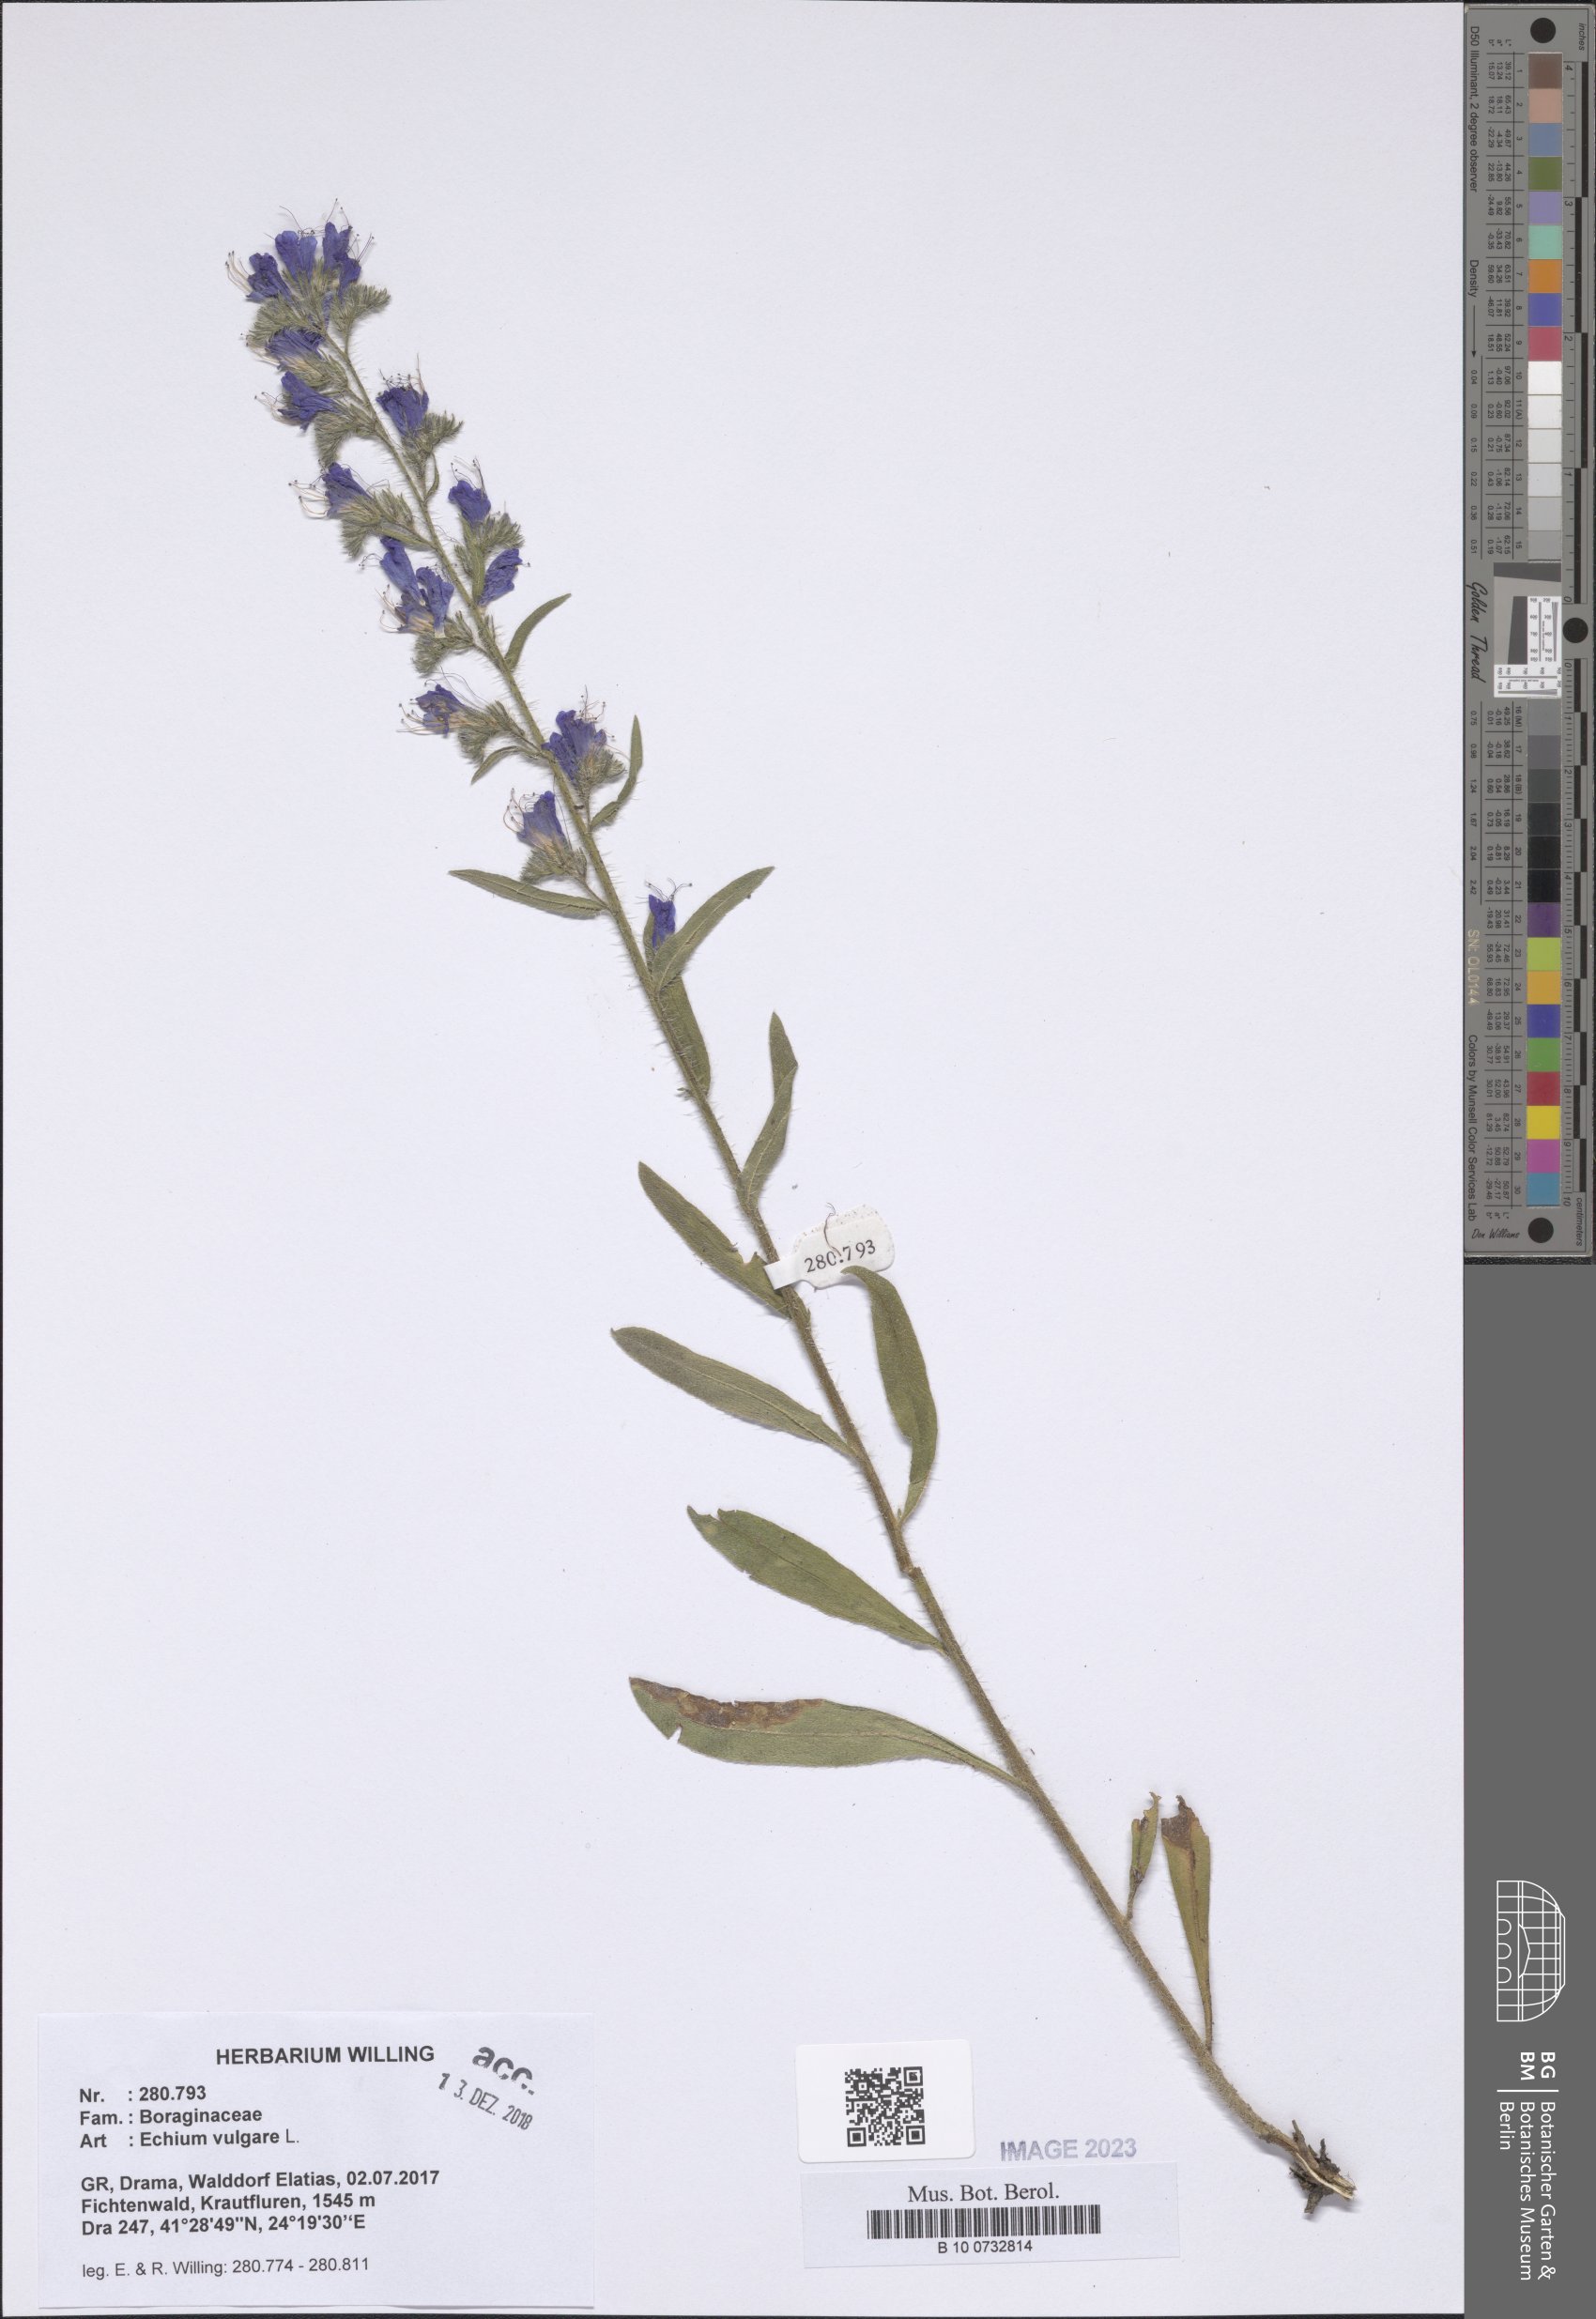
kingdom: Plantae
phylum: Tracheophyta
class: Magnoliopsida
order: Boraginales
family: Boraginaceae
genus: Echium
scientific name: Echium vulgare
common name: Common viper's bugloss
